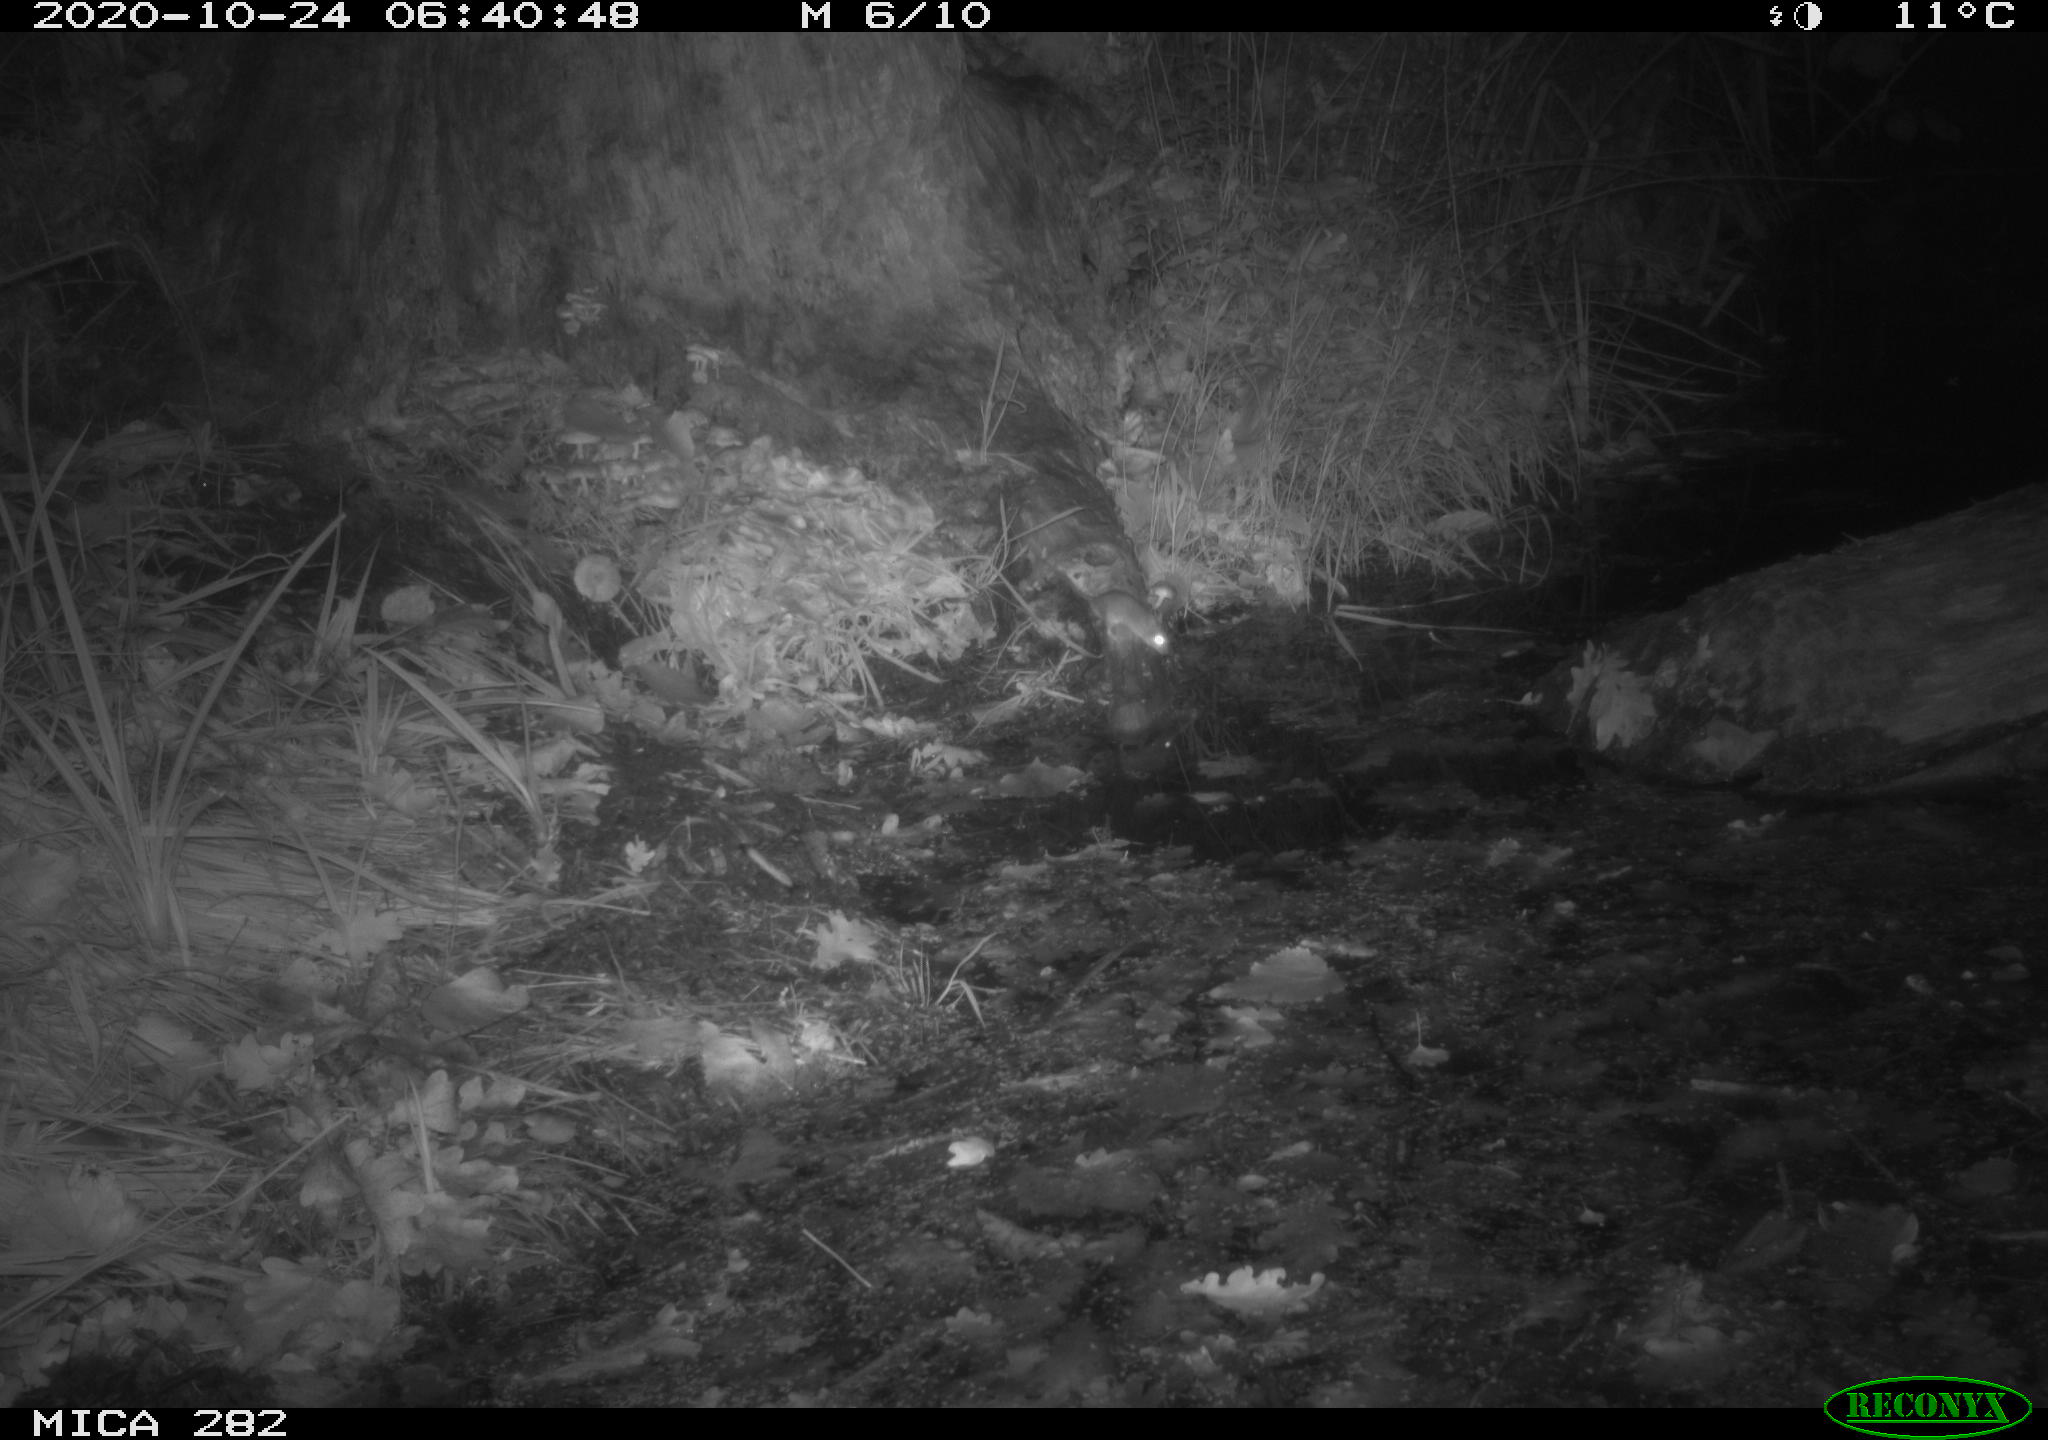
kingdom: Animalia
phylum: Chordata
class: Mammalia
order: Soricomorpha
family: Soricidae
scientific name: Soricidae
